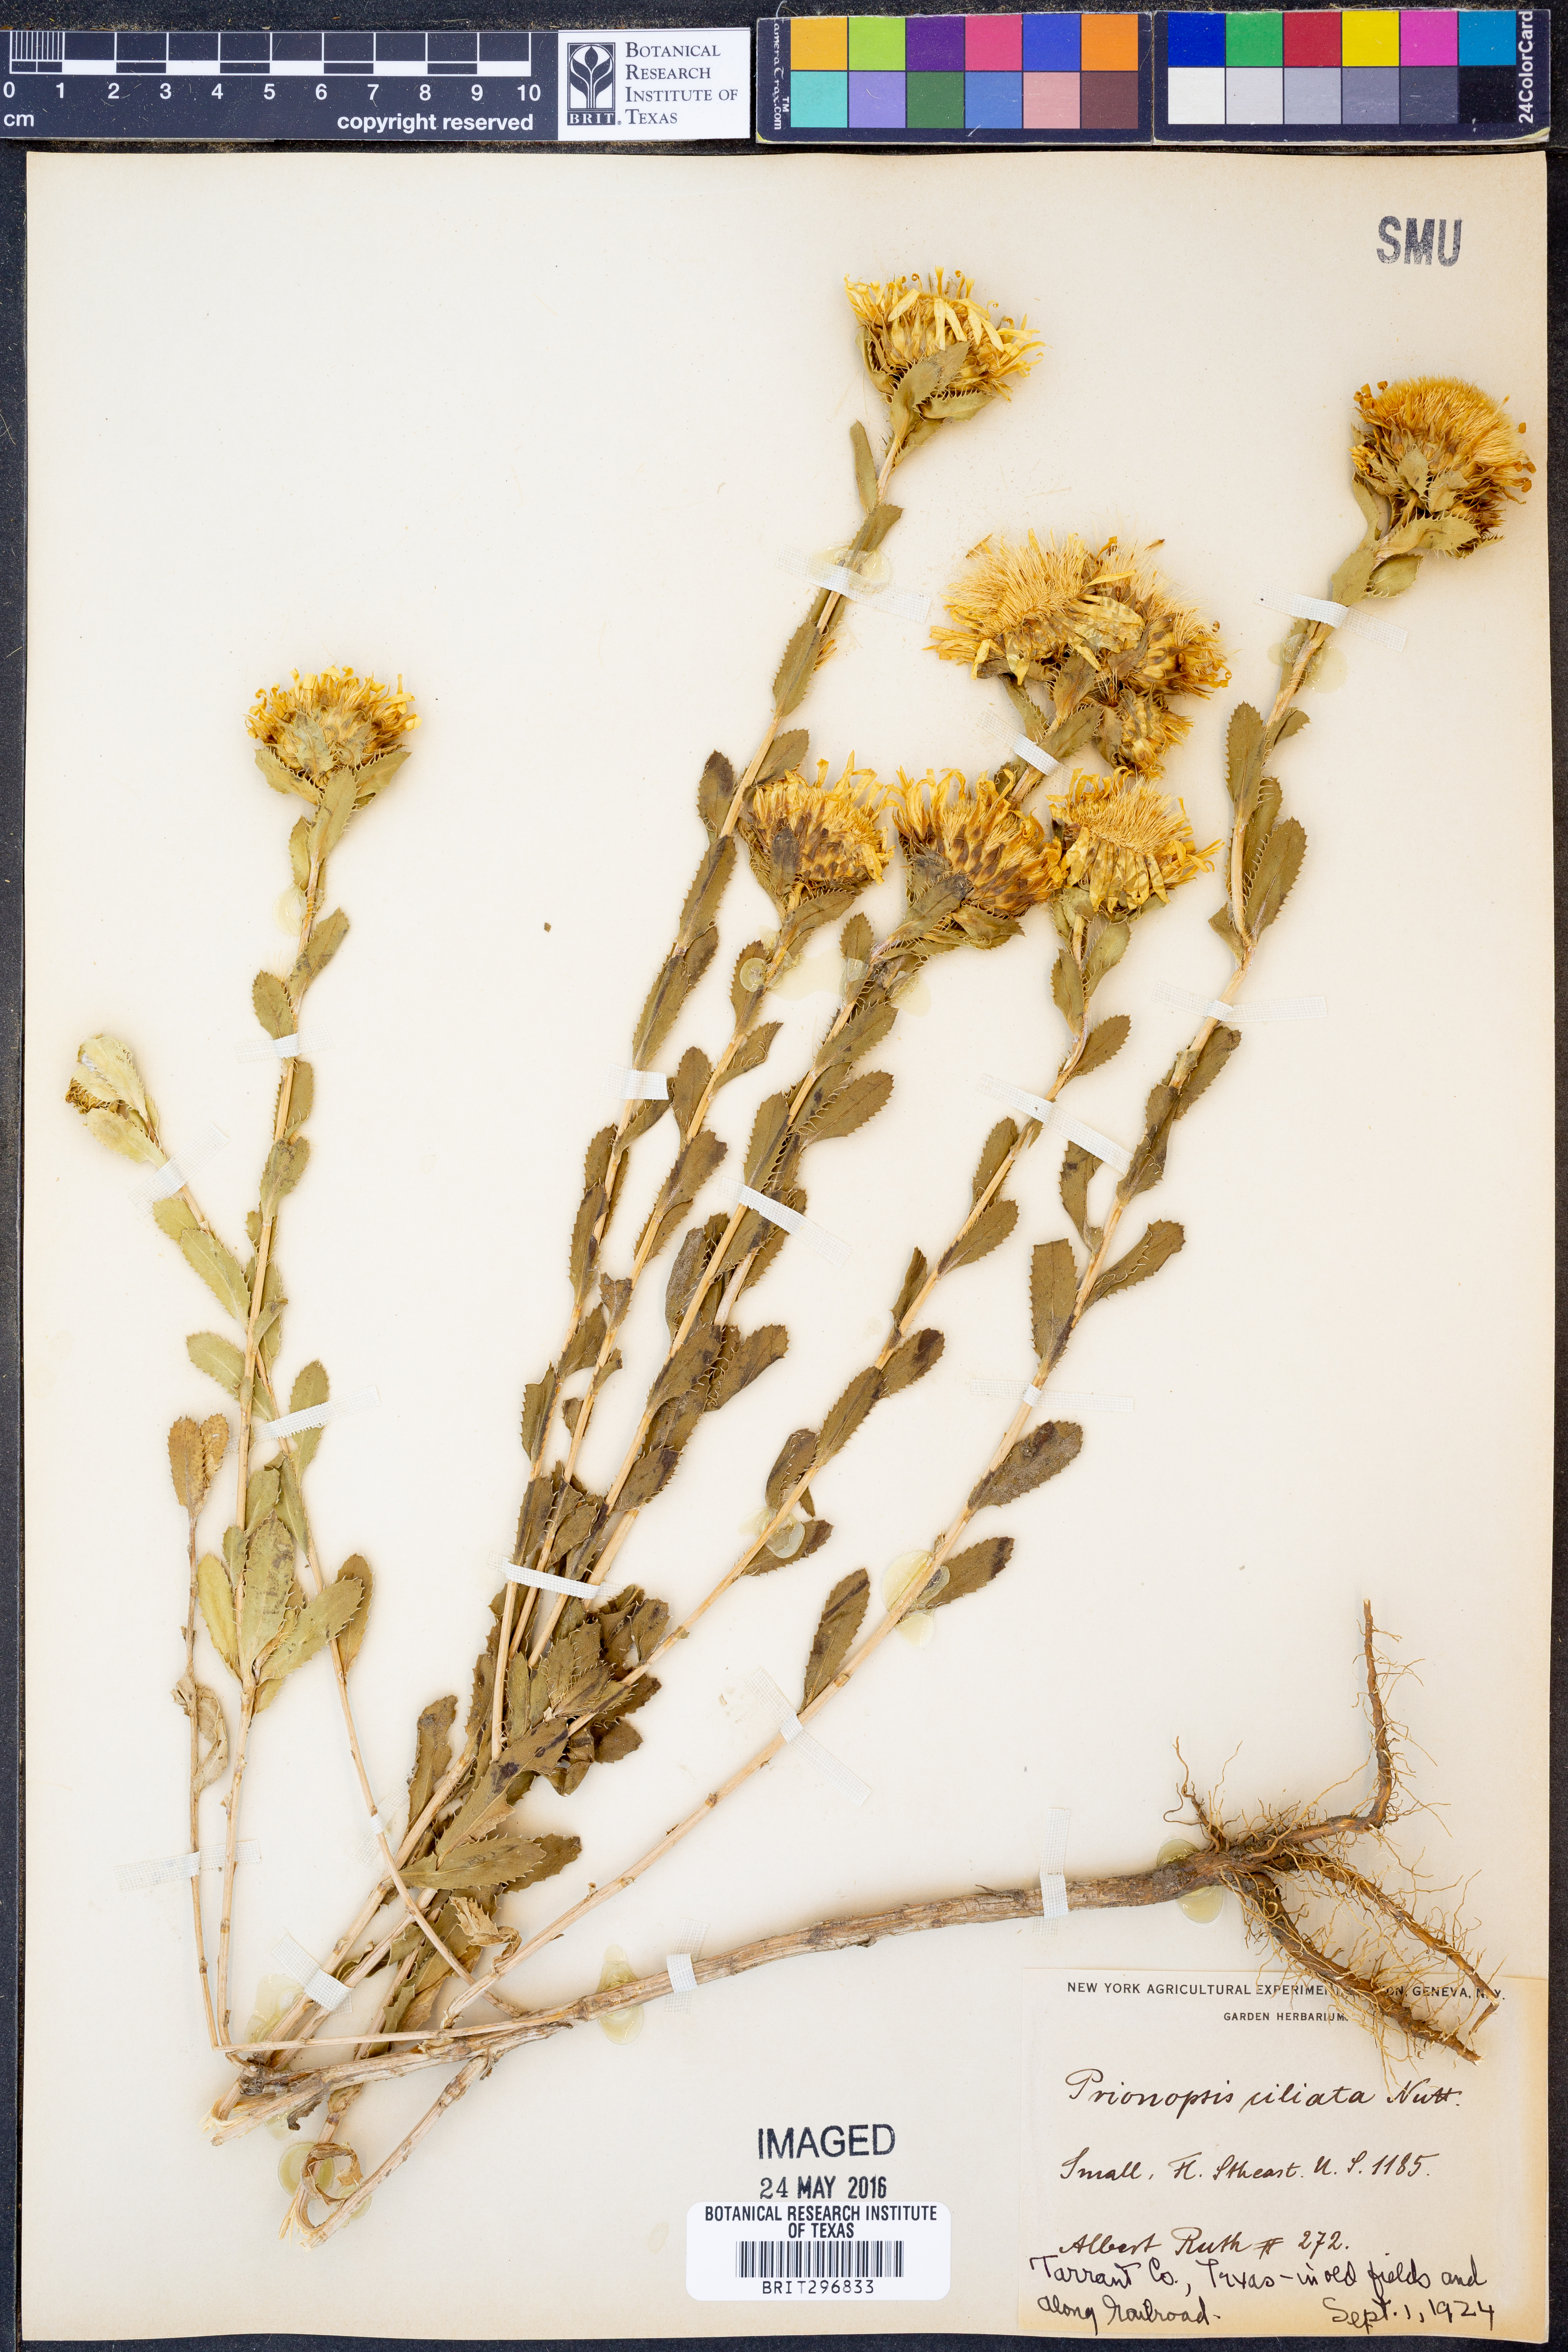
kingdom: Plantae
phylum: Tracheophyta
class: Magnoliopsida
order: Asterales
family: Asteraceae
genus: Grindelia
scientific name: Grindelia ciliata
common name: Goldenweed
